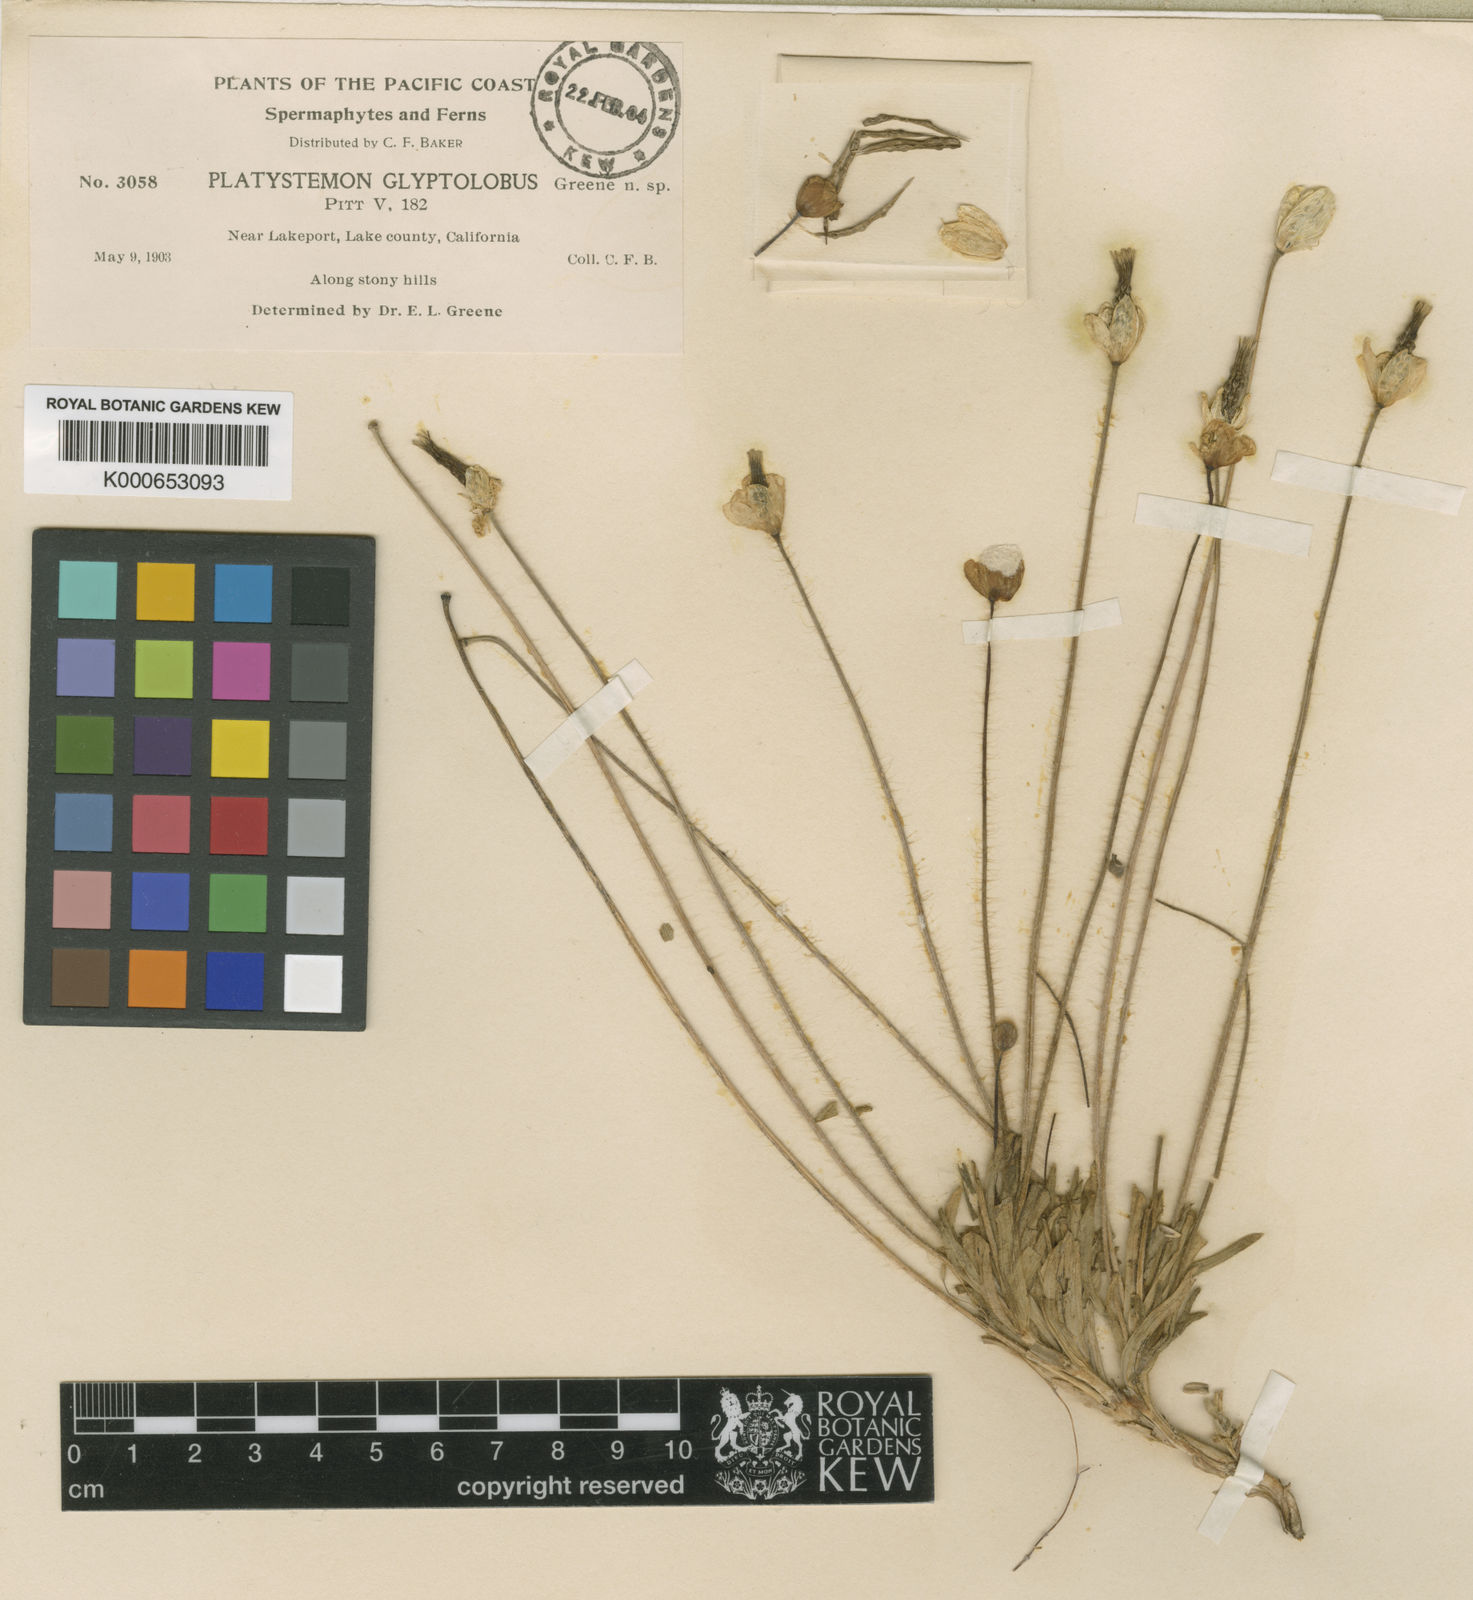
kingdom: Plantae
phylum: Tracheophyta
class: Magnoliopsida
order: Ranunculales
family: Papaveraceae
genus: Platystemon
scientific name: Platystemon californicus
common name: Cream-cups
